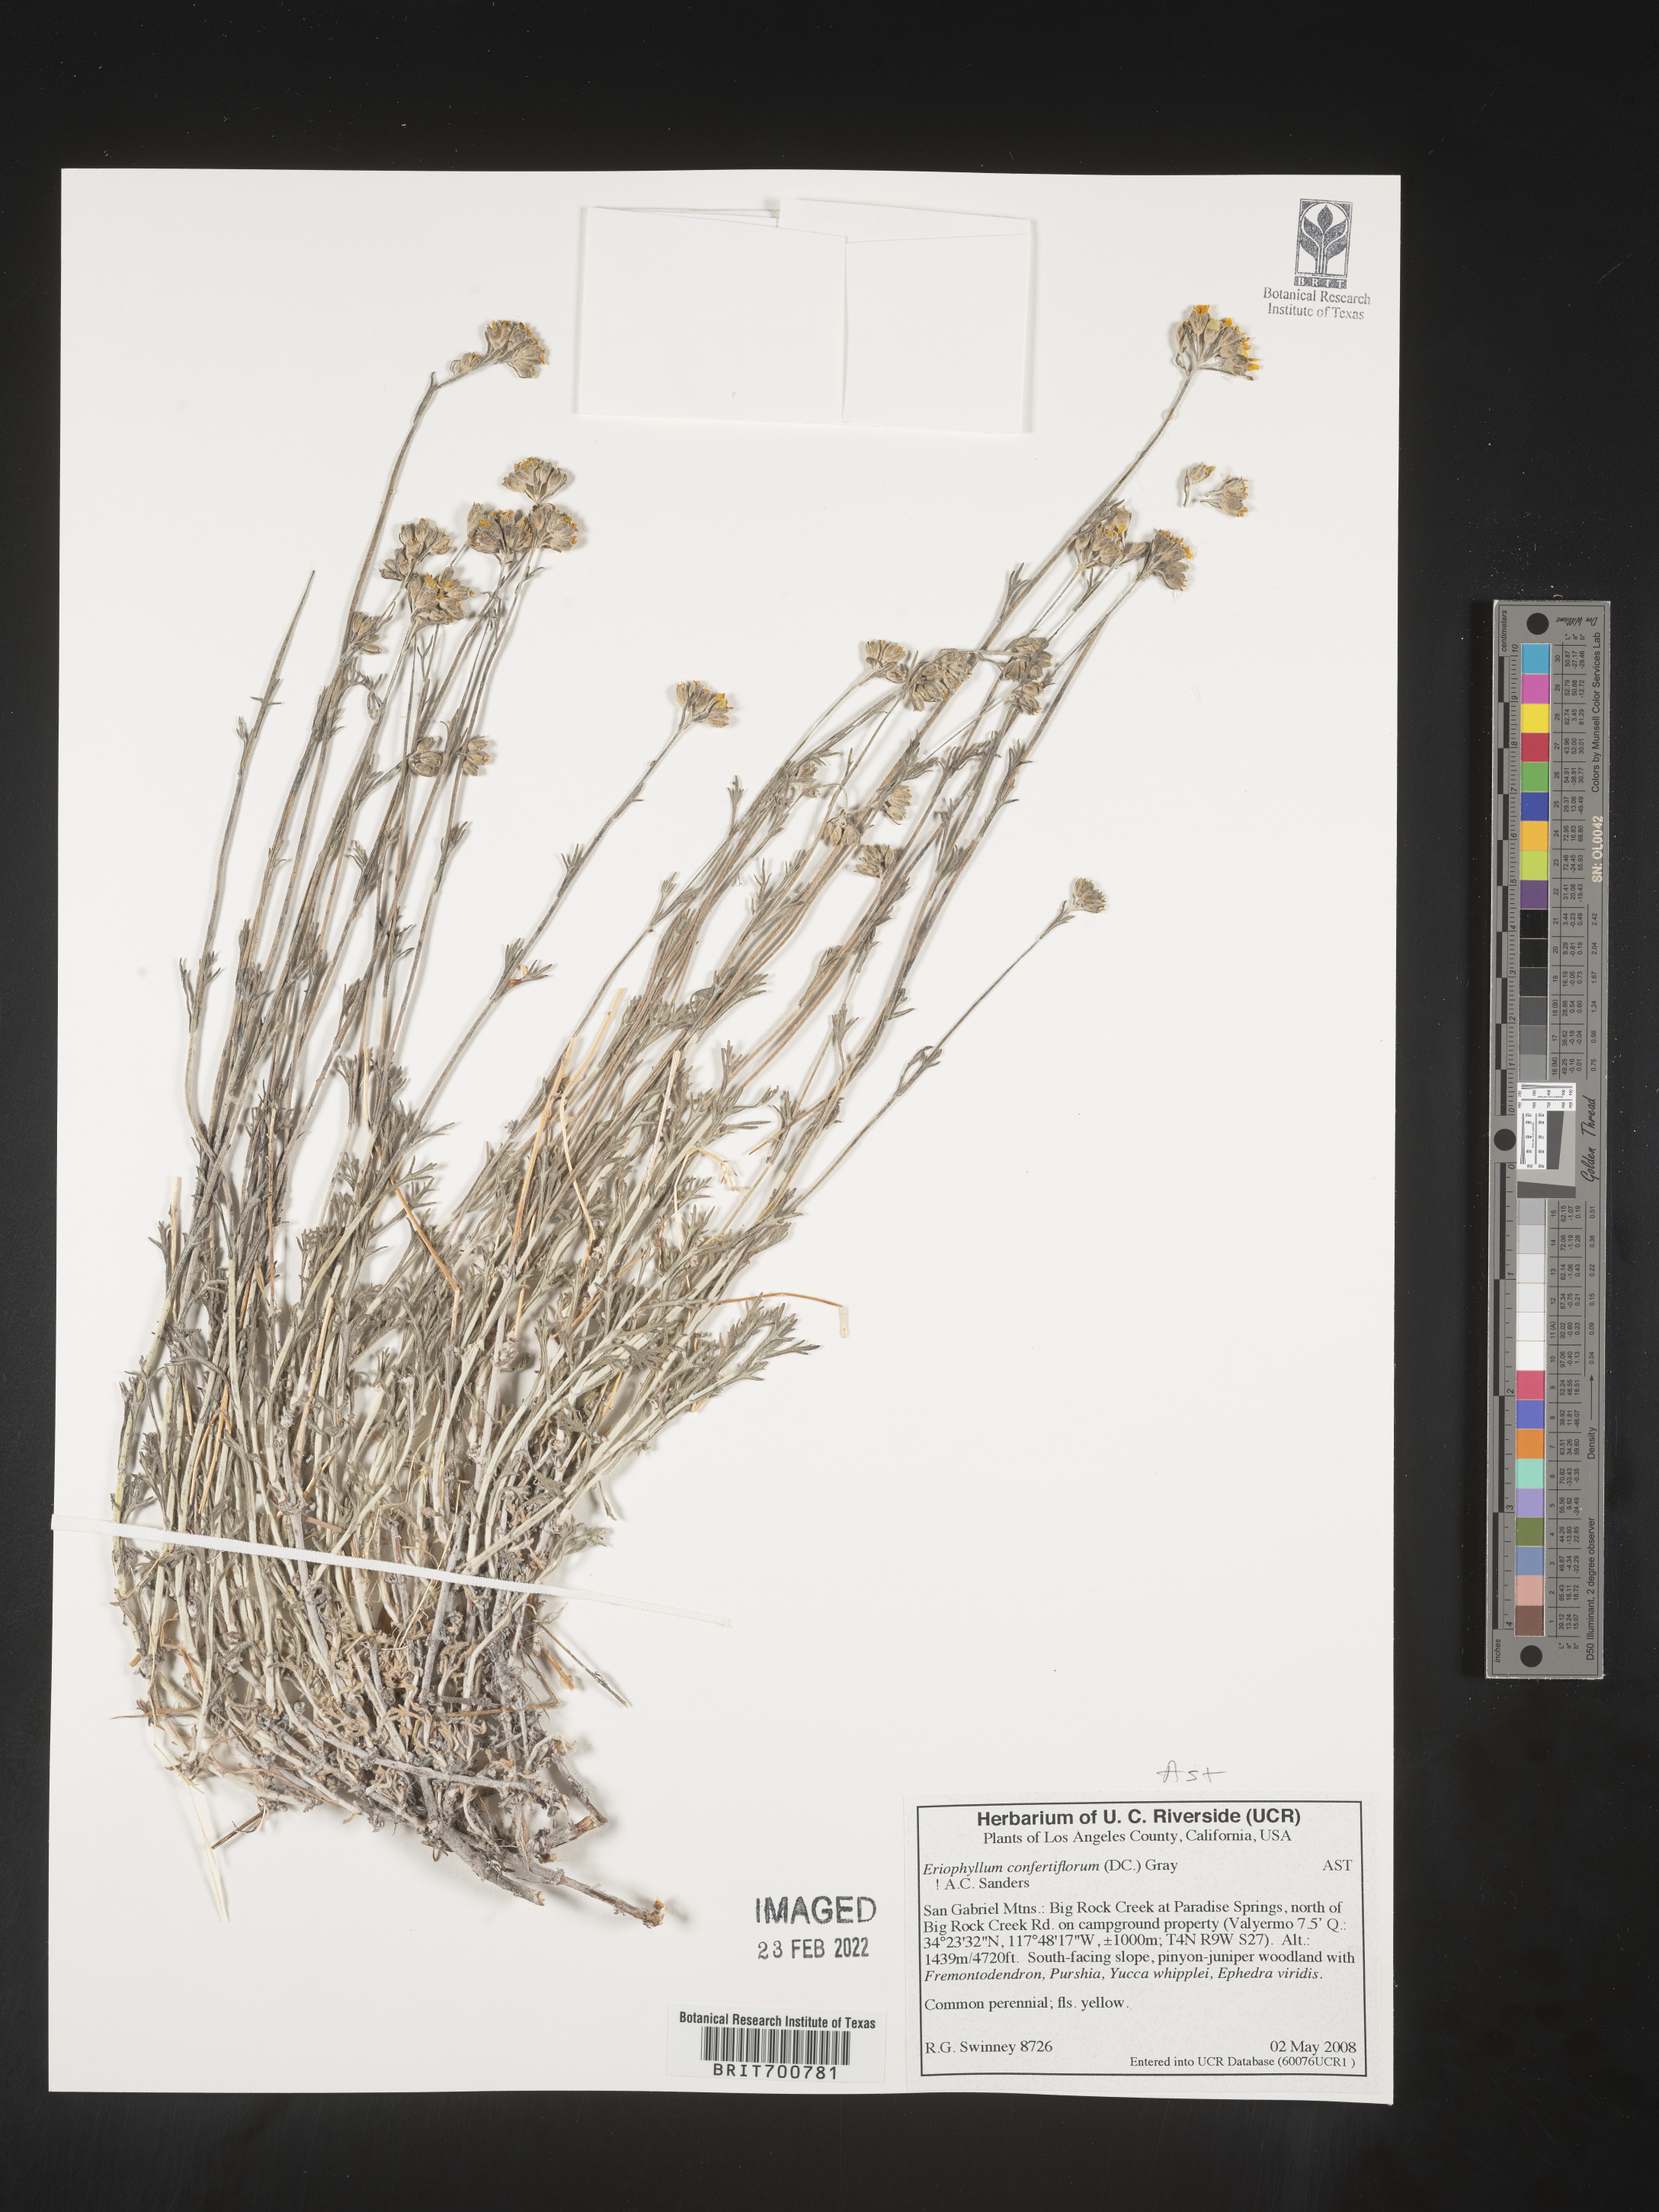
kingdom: Plantae
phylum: Tracheophyta
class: Magnoliopsida
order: Asterales
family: Asteraceae
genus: Eriophyllum
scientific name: Eriophyllum confertiflorum
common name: Golden-yarrow
